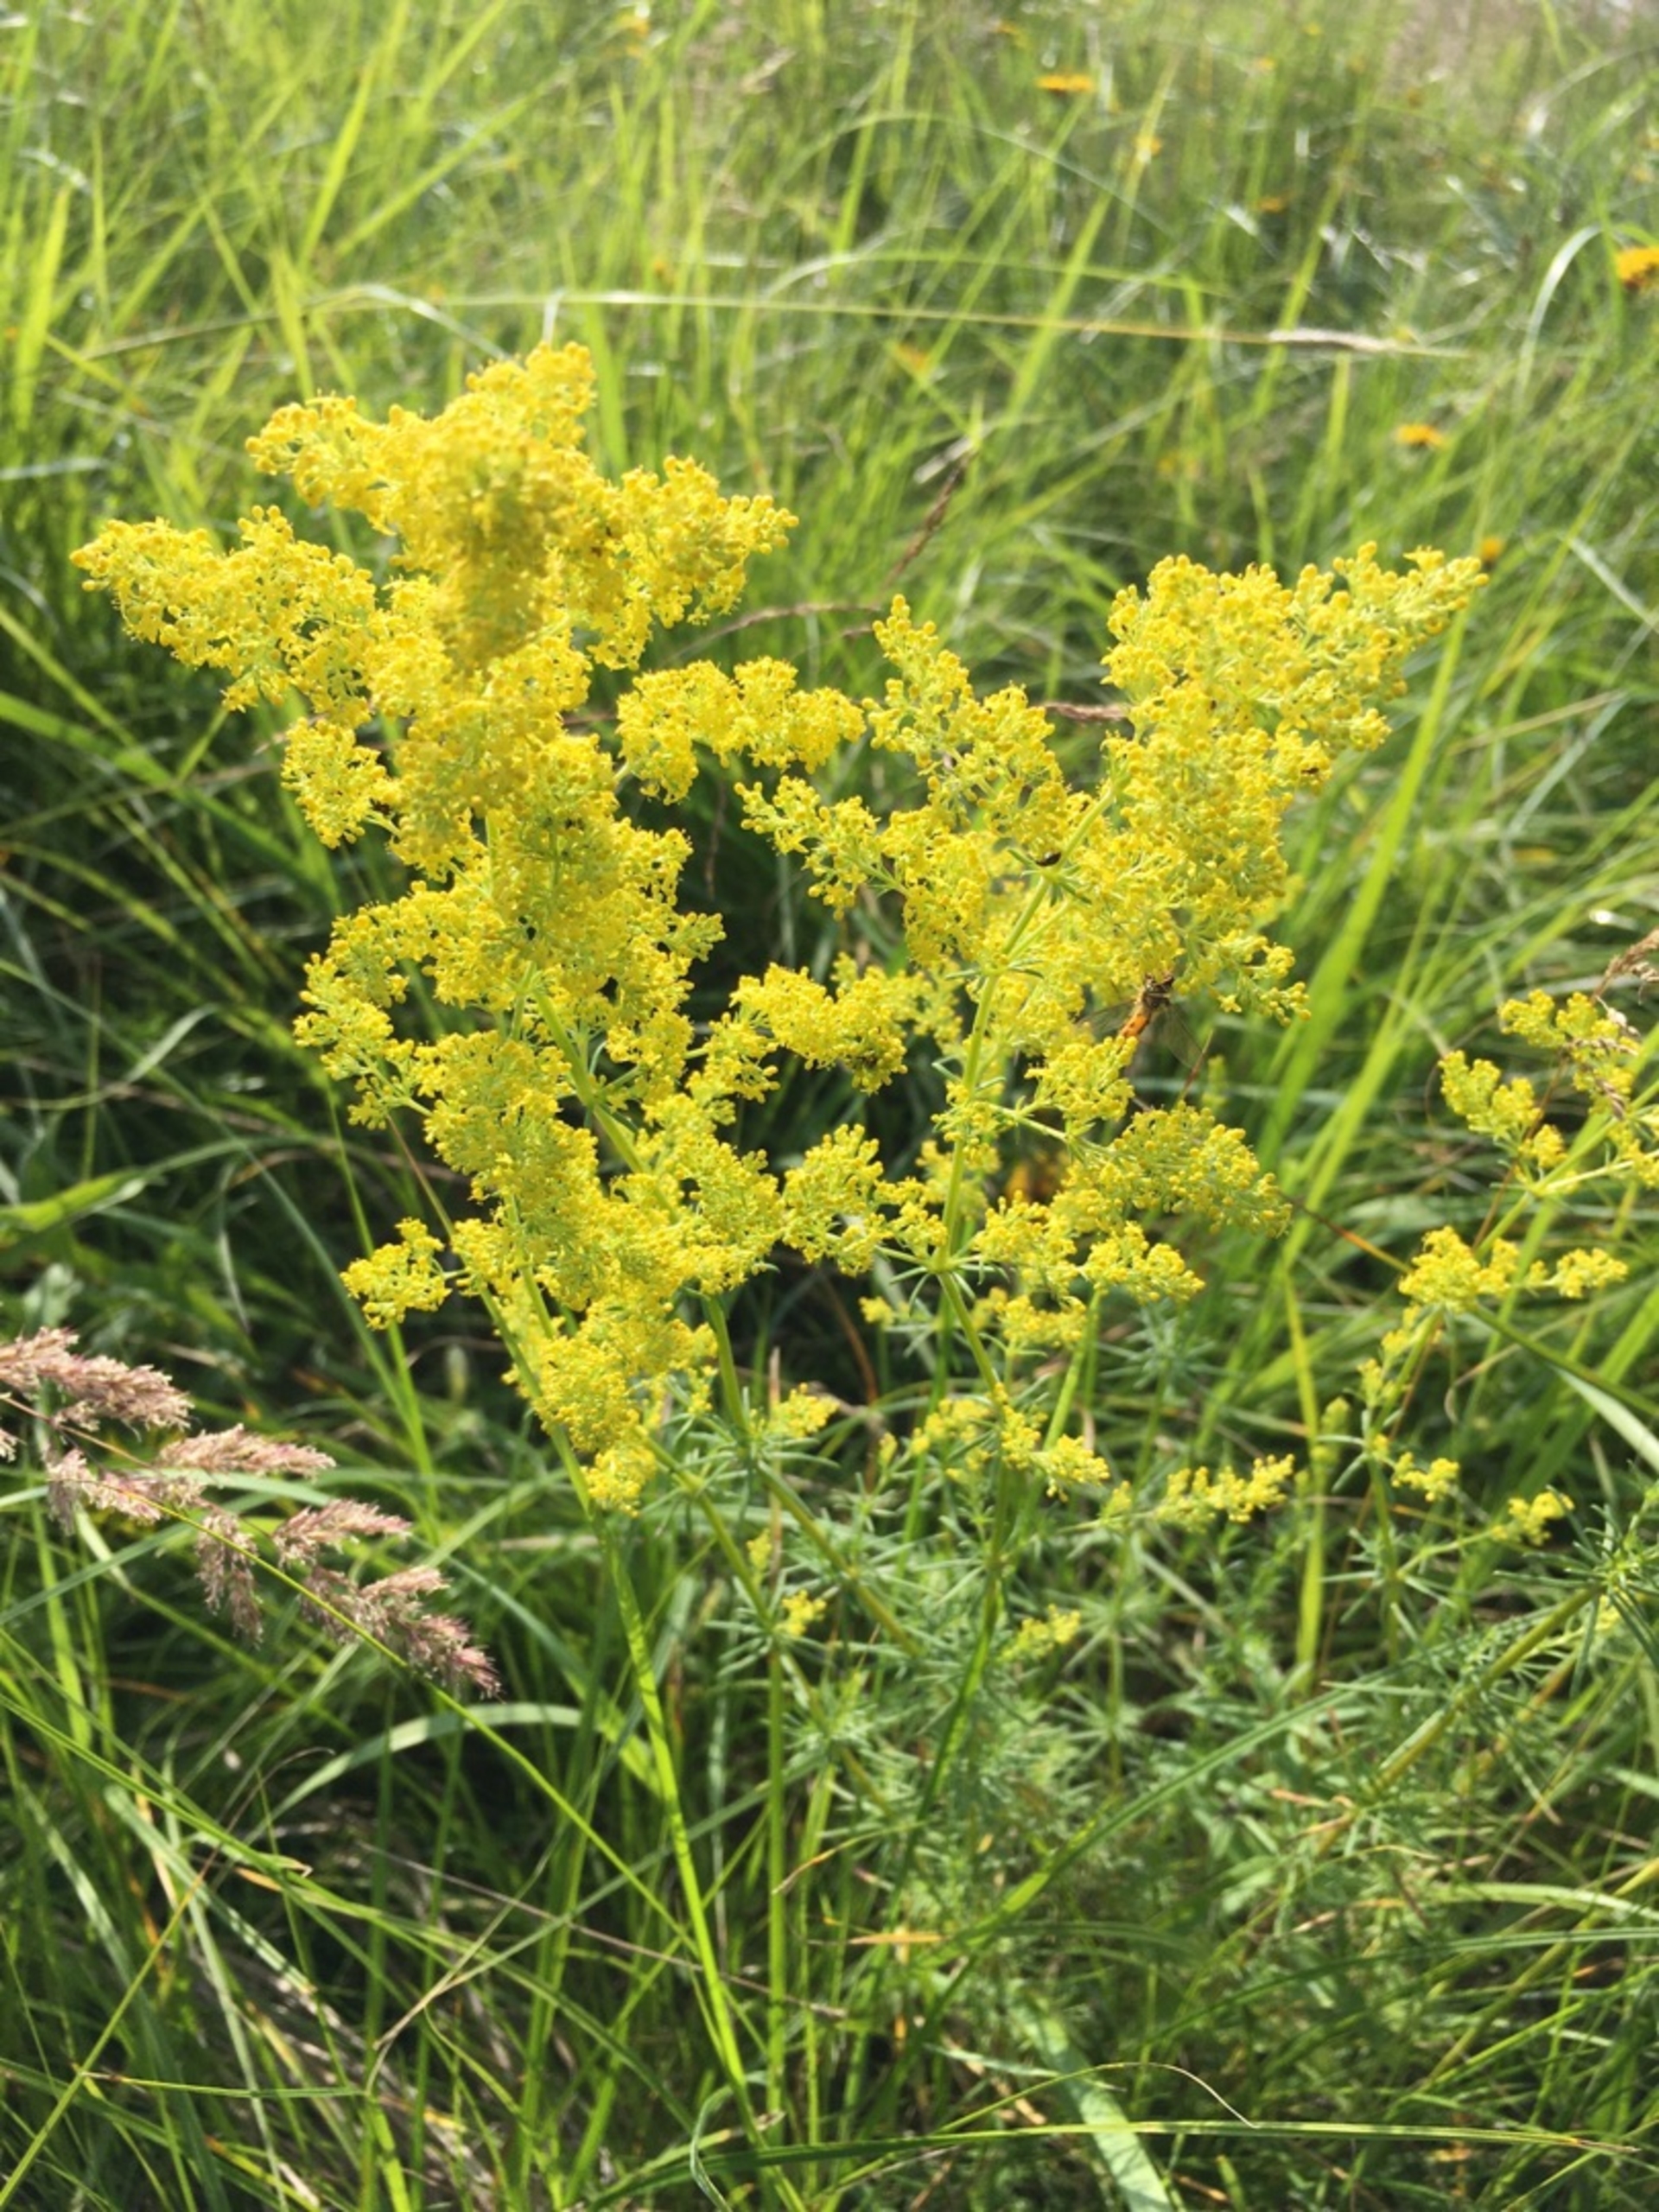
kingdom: Plantae
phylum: Tracheophyta
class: Magnoliopsida
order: Gentianales
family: Rubiaceae
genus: Galium
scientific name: Galium verum
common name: Gul snerre
